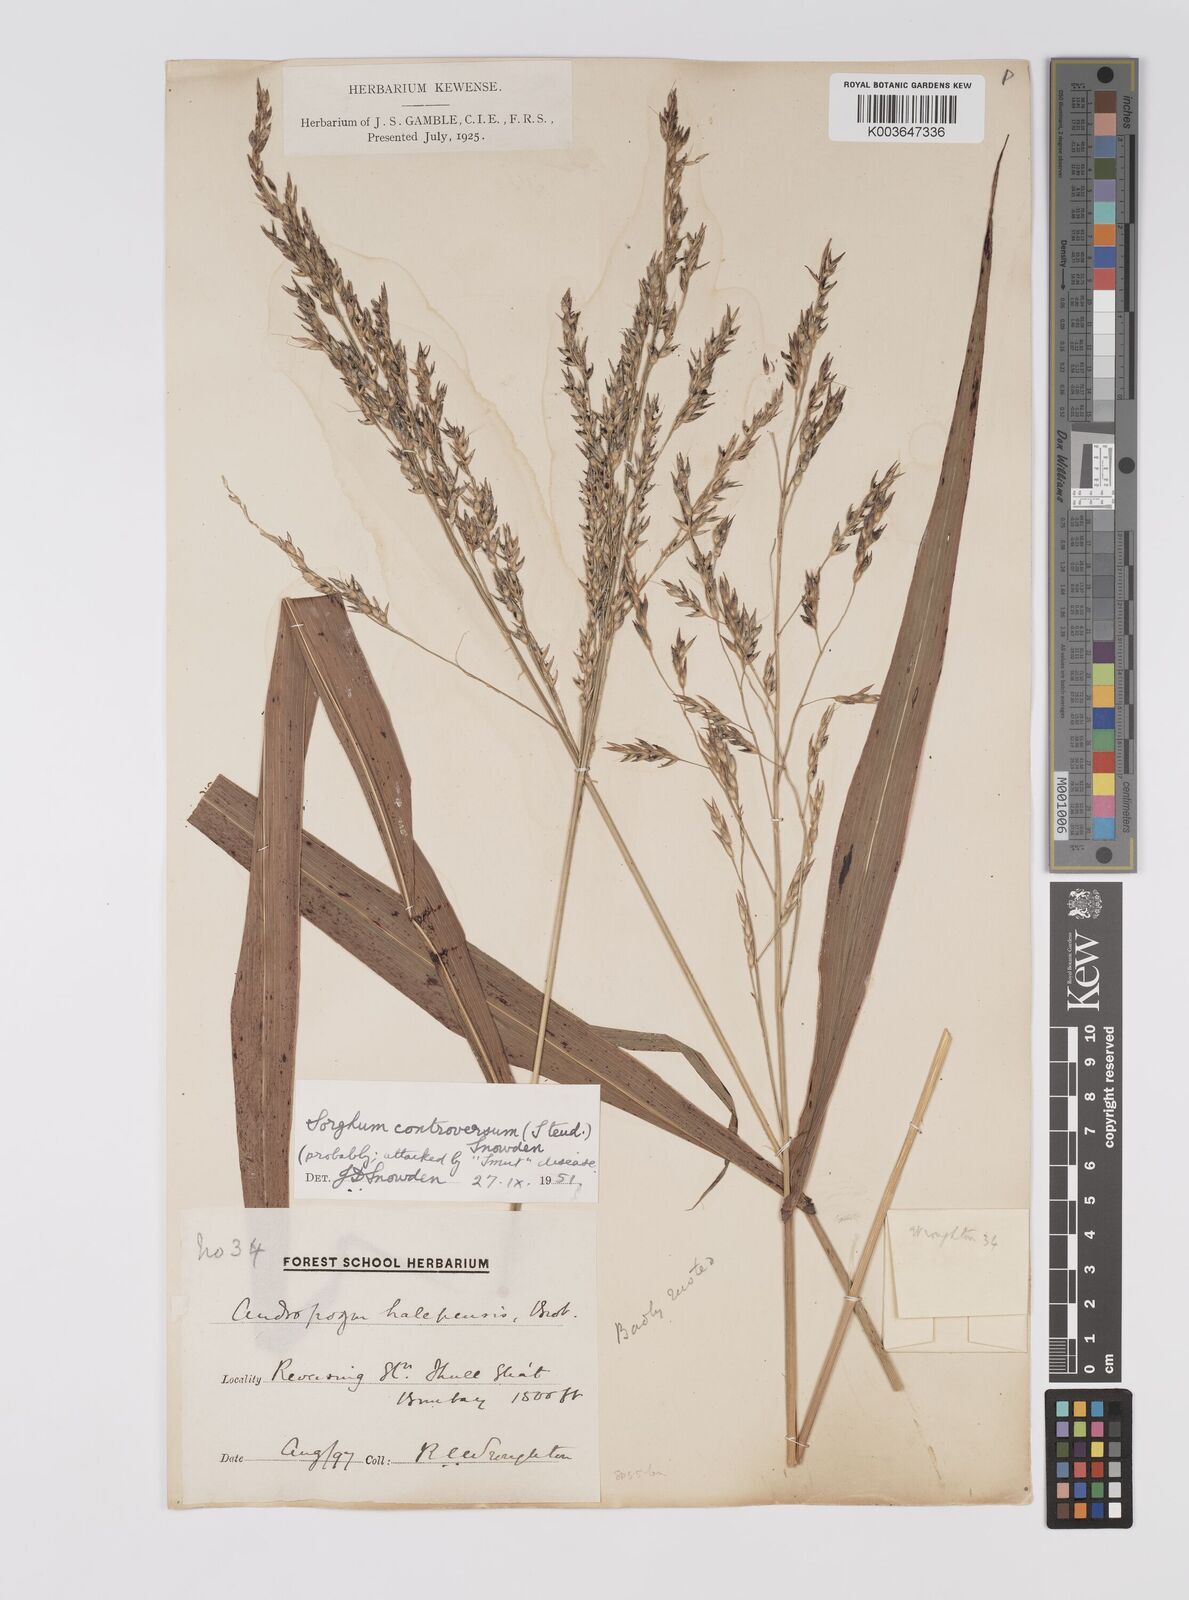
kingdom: Plantae
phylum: Tracheophyta
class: Liliopsida
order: Poales
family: Poaceae
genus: Sorghum
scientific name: Sorghum controversum
